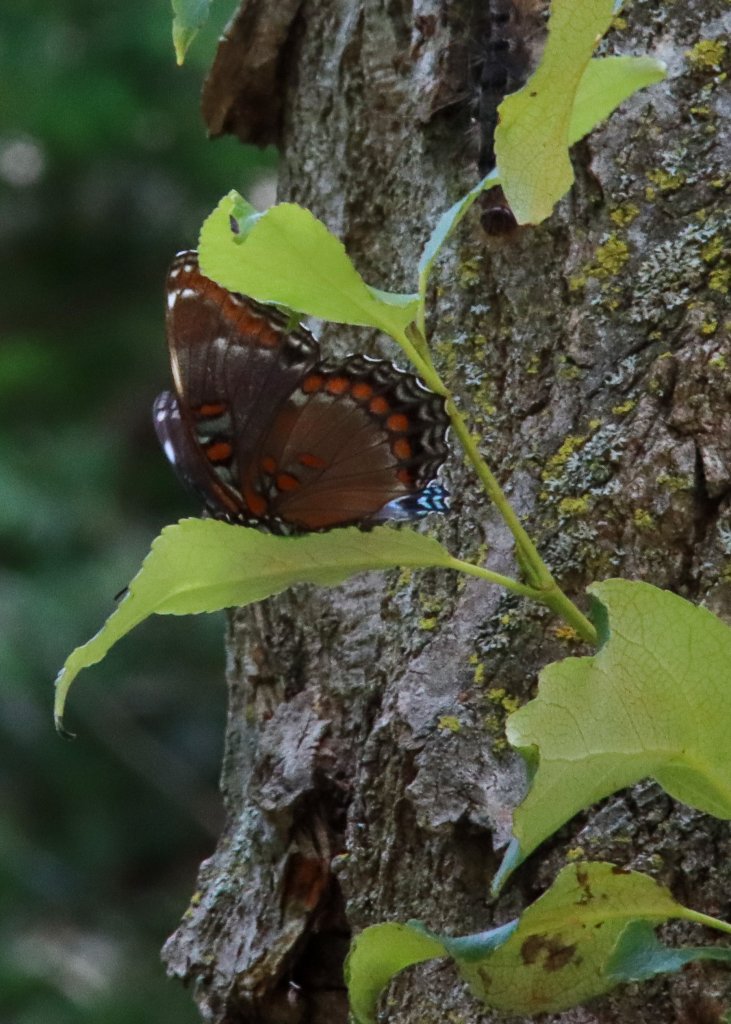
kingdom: Animalia
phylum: Arthropoda
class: Insecta
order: Lepidoptera
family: Nymphalidae
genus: Limenitis
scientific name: Limenitis astyanax
